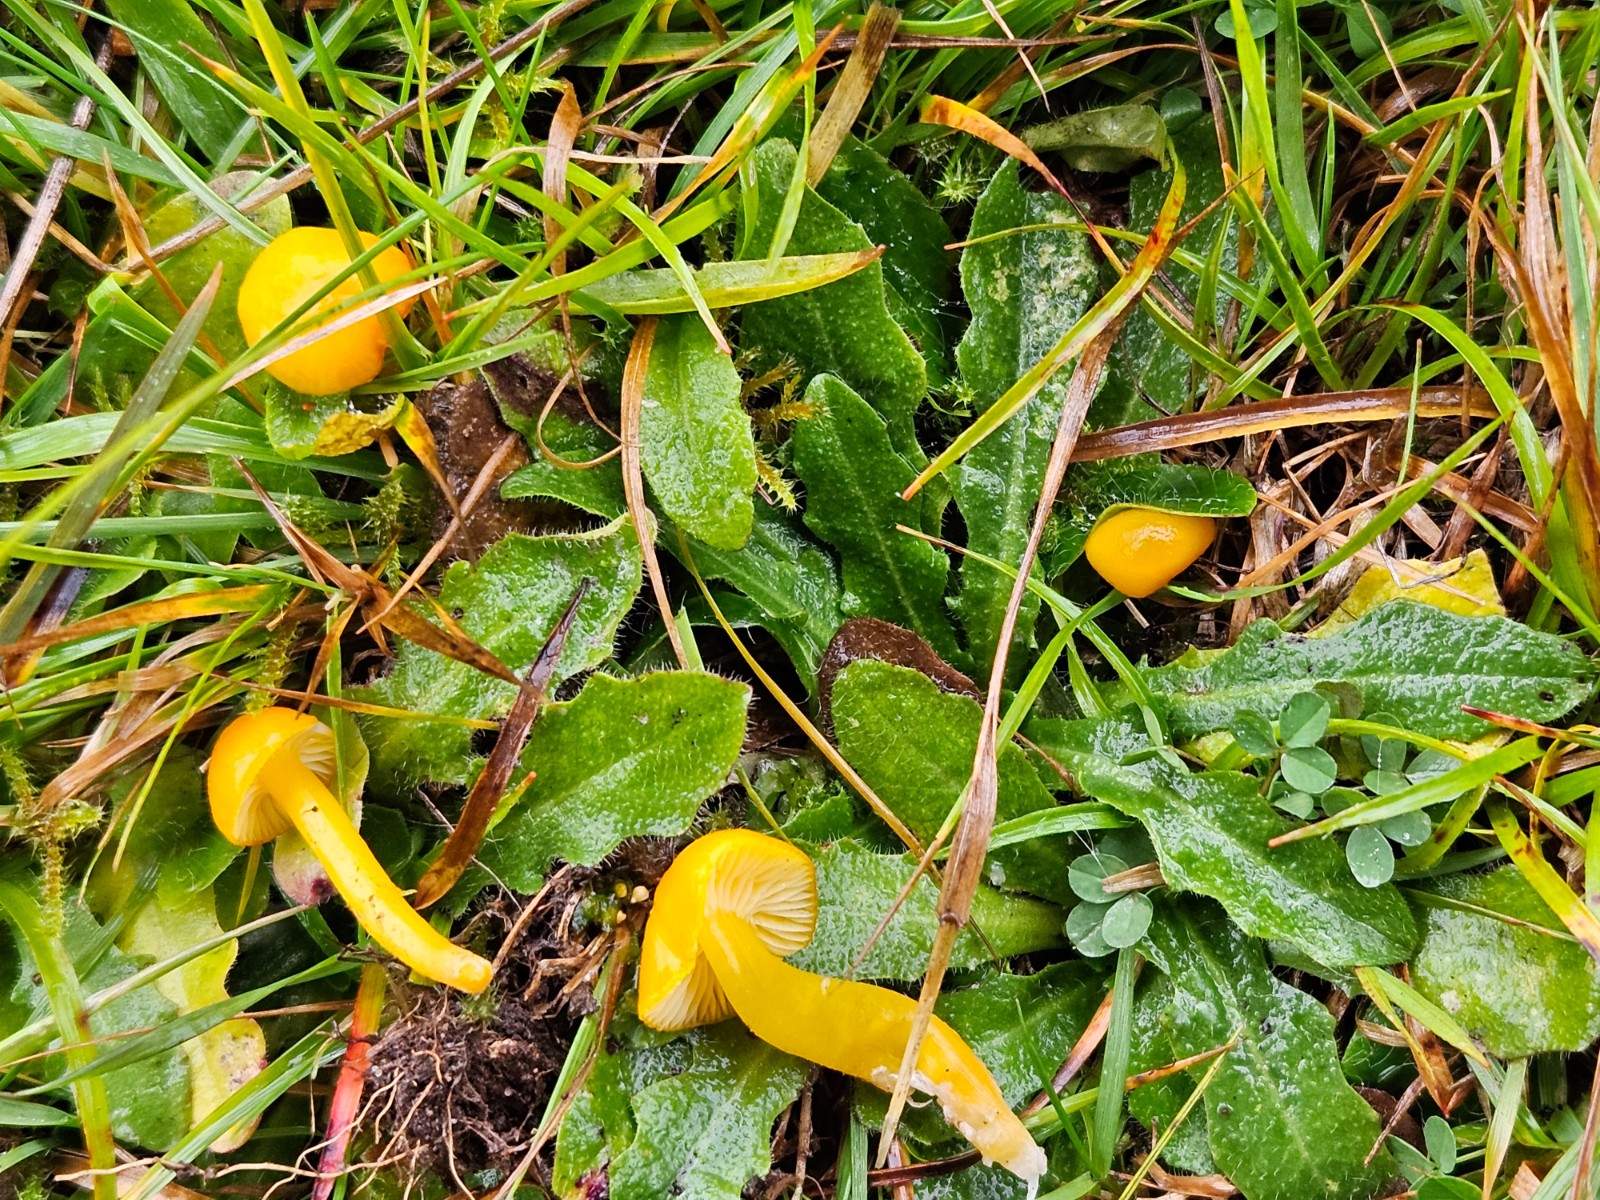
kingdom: Fungi
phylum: Basidiomycota
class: Agaricomycetes
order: Agaricales
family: Hygrophoraceae
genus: Hygrocybe
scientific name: Hygrocybe
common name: vokshat
